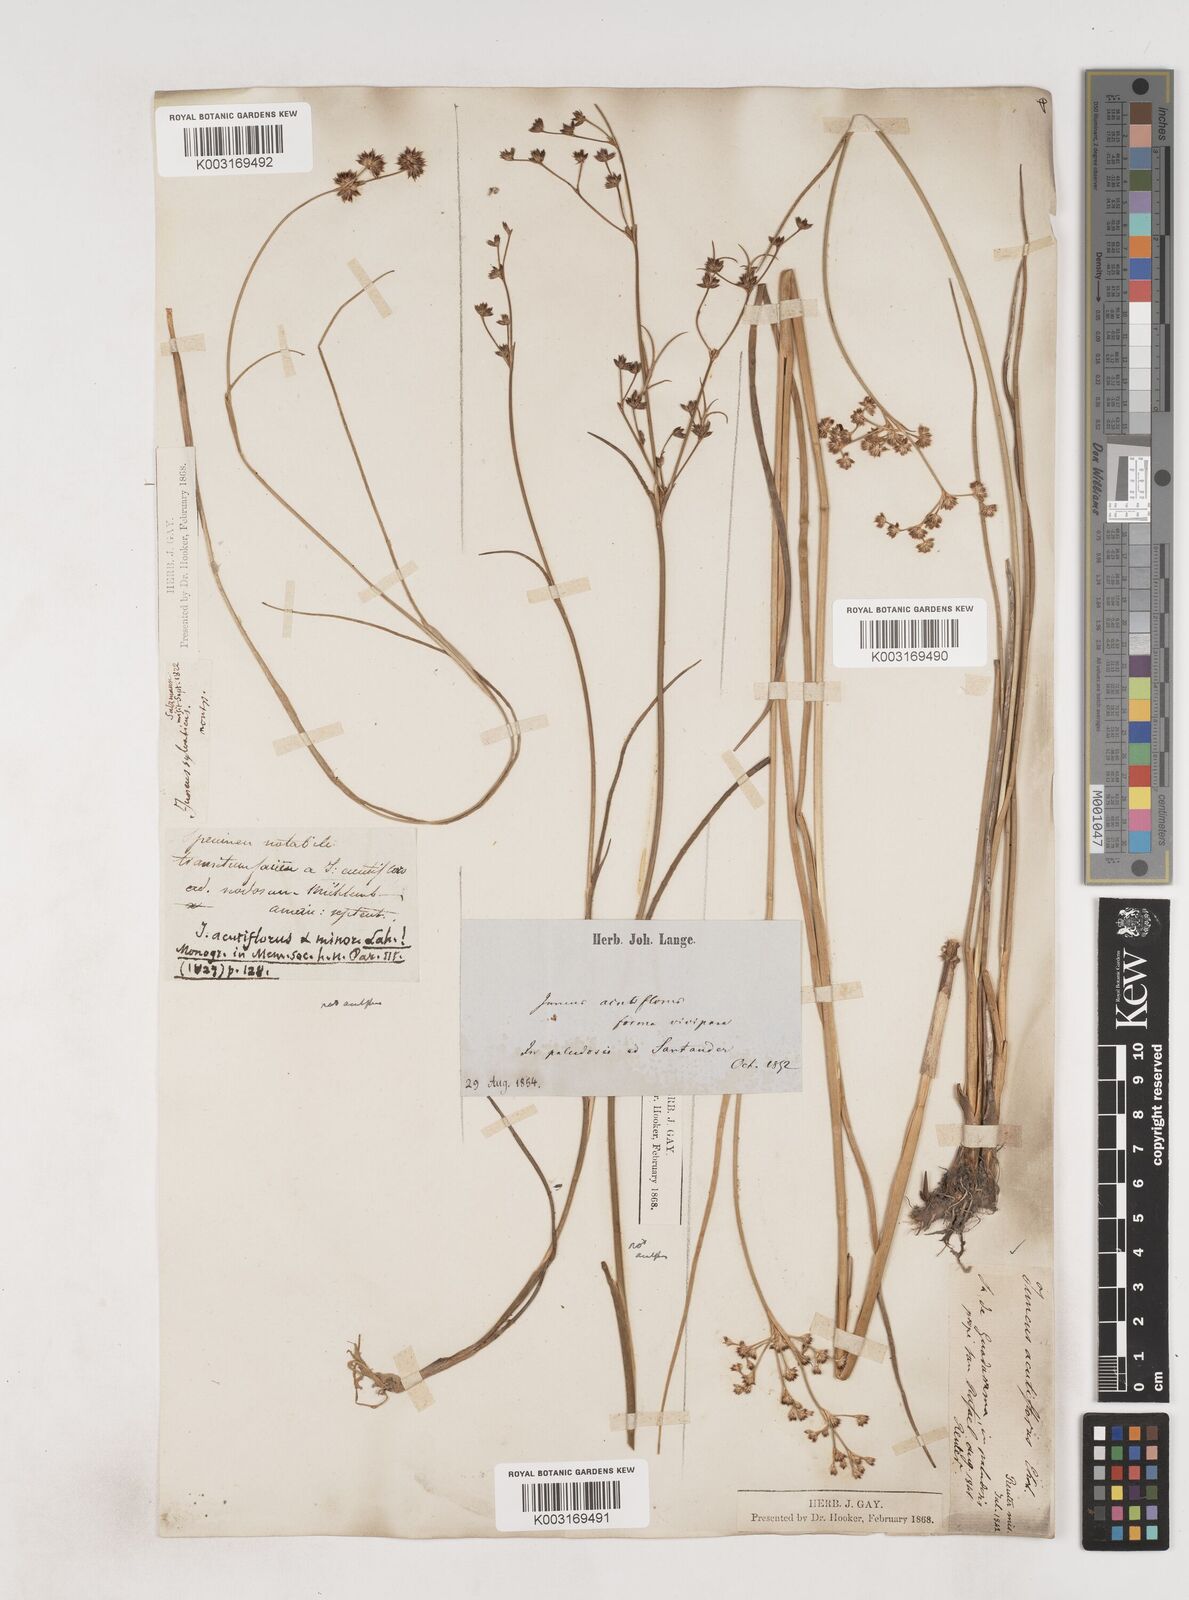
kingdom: Plantae
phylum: Tracheophyta
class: Liliopsida
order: Poales
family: Juncaceae
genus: Juncus
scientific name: Juncus acutiflorus
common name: Sharp-flowered rush
